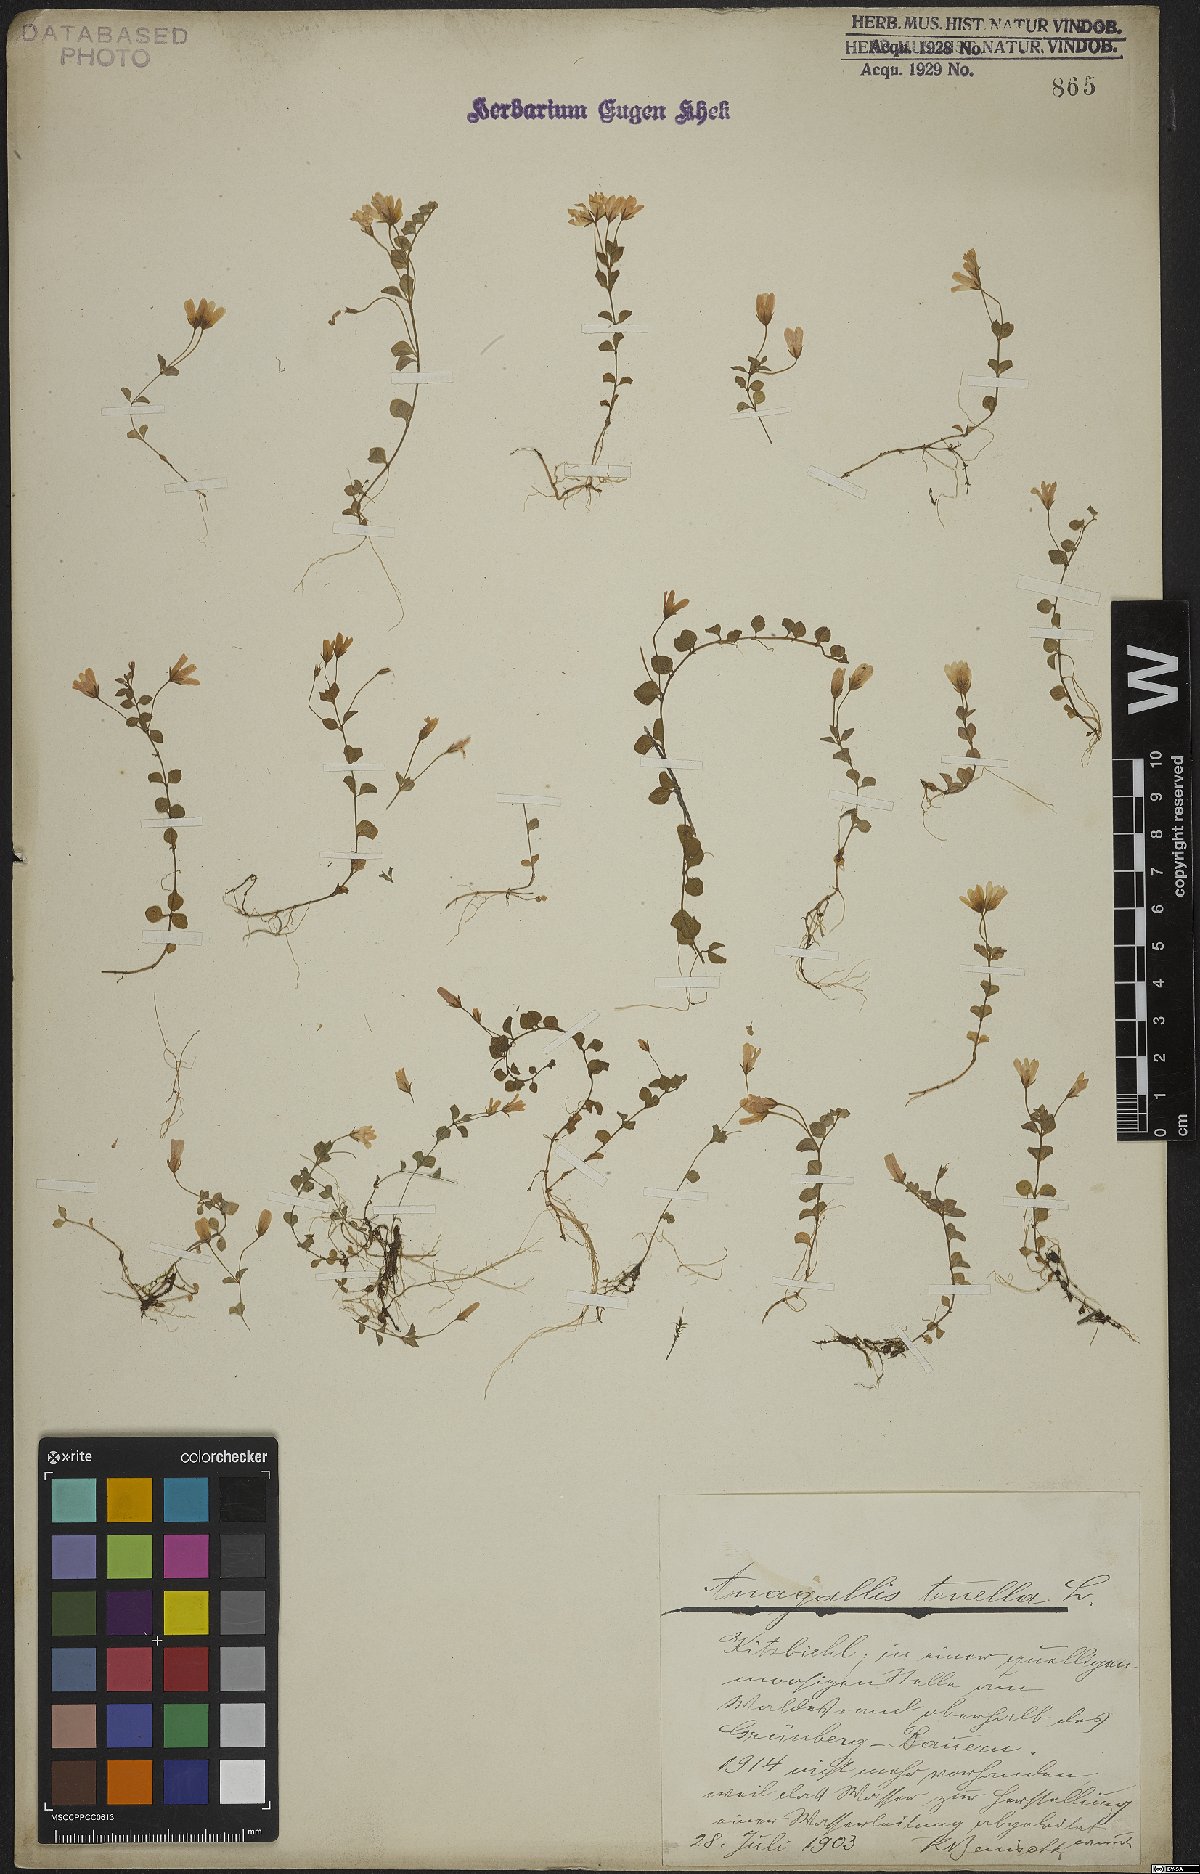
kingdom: Plantae
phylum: Tracheophyta
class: Magnoliopsida
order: Ericales
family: Primulaceae
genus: Lysimachia
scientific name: Lysimachia tenella
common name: European bog pimpernel
